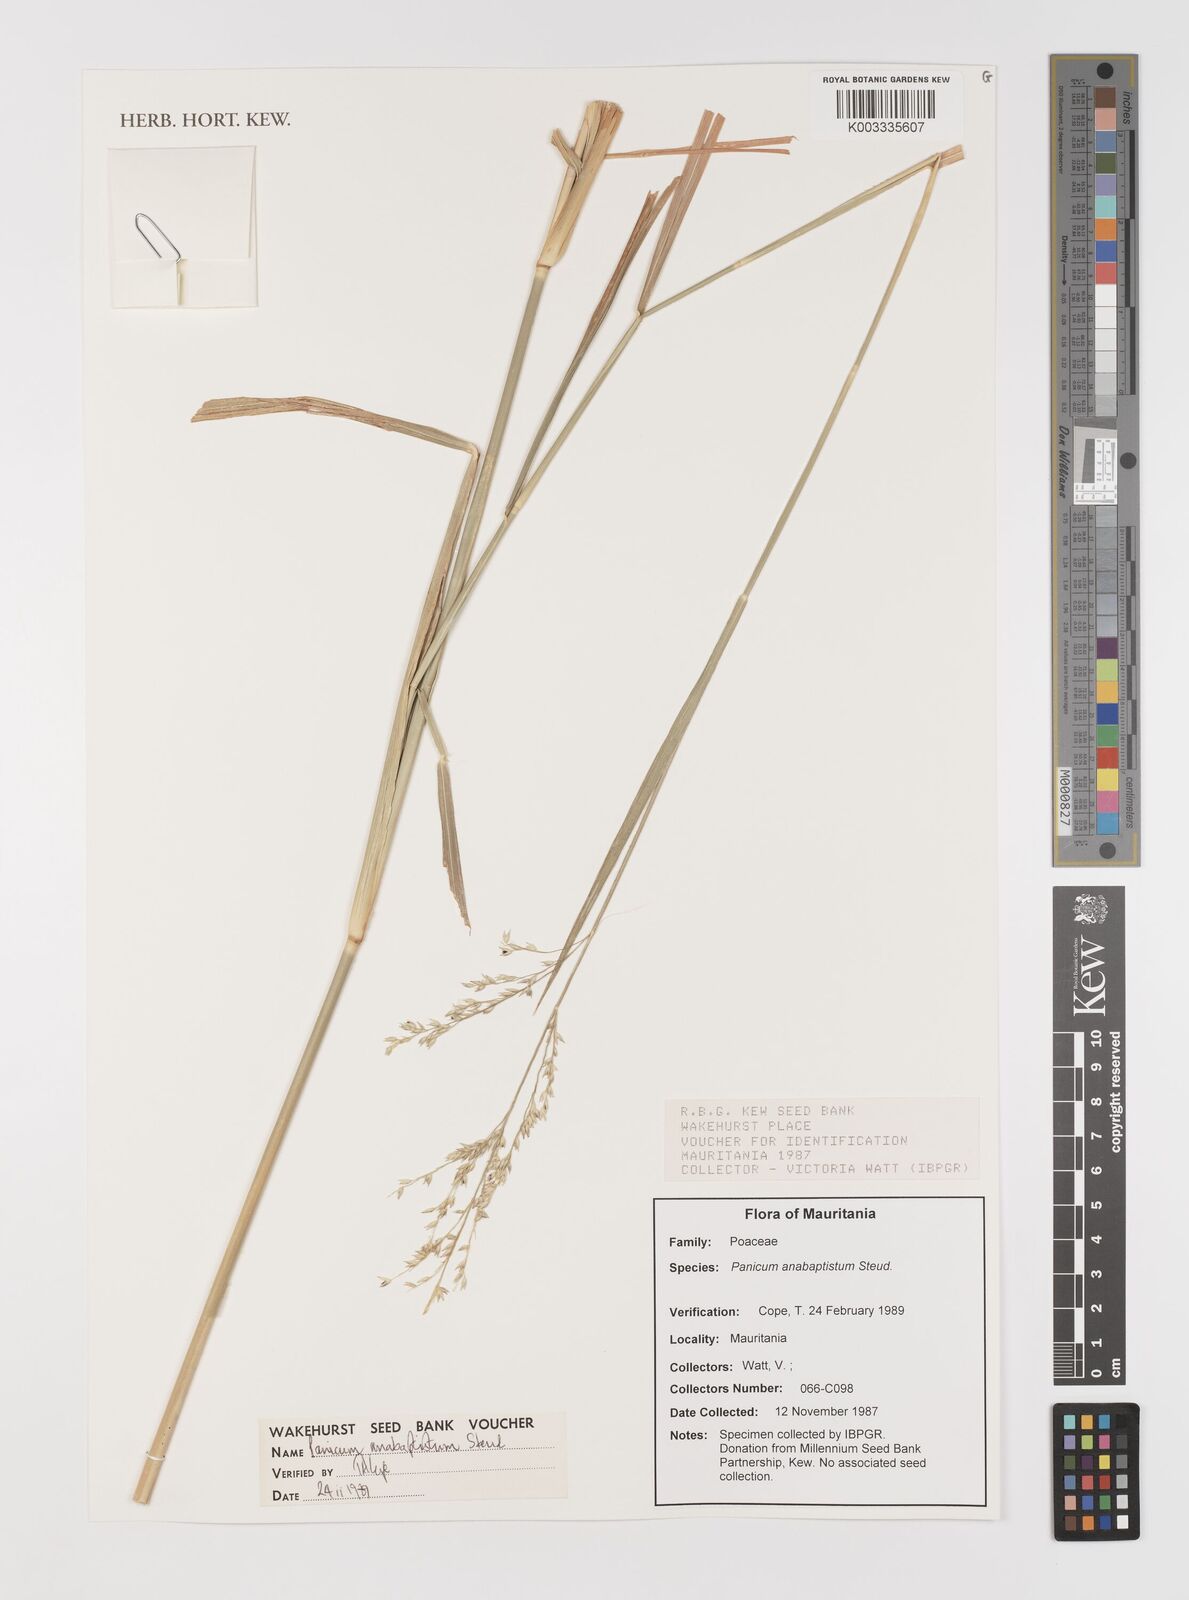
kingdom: Plantae
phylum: Tracheophyta
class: Liliopsida
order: Poales
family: Poaceae
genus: Panicum
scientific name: Panicum anabaptistum
